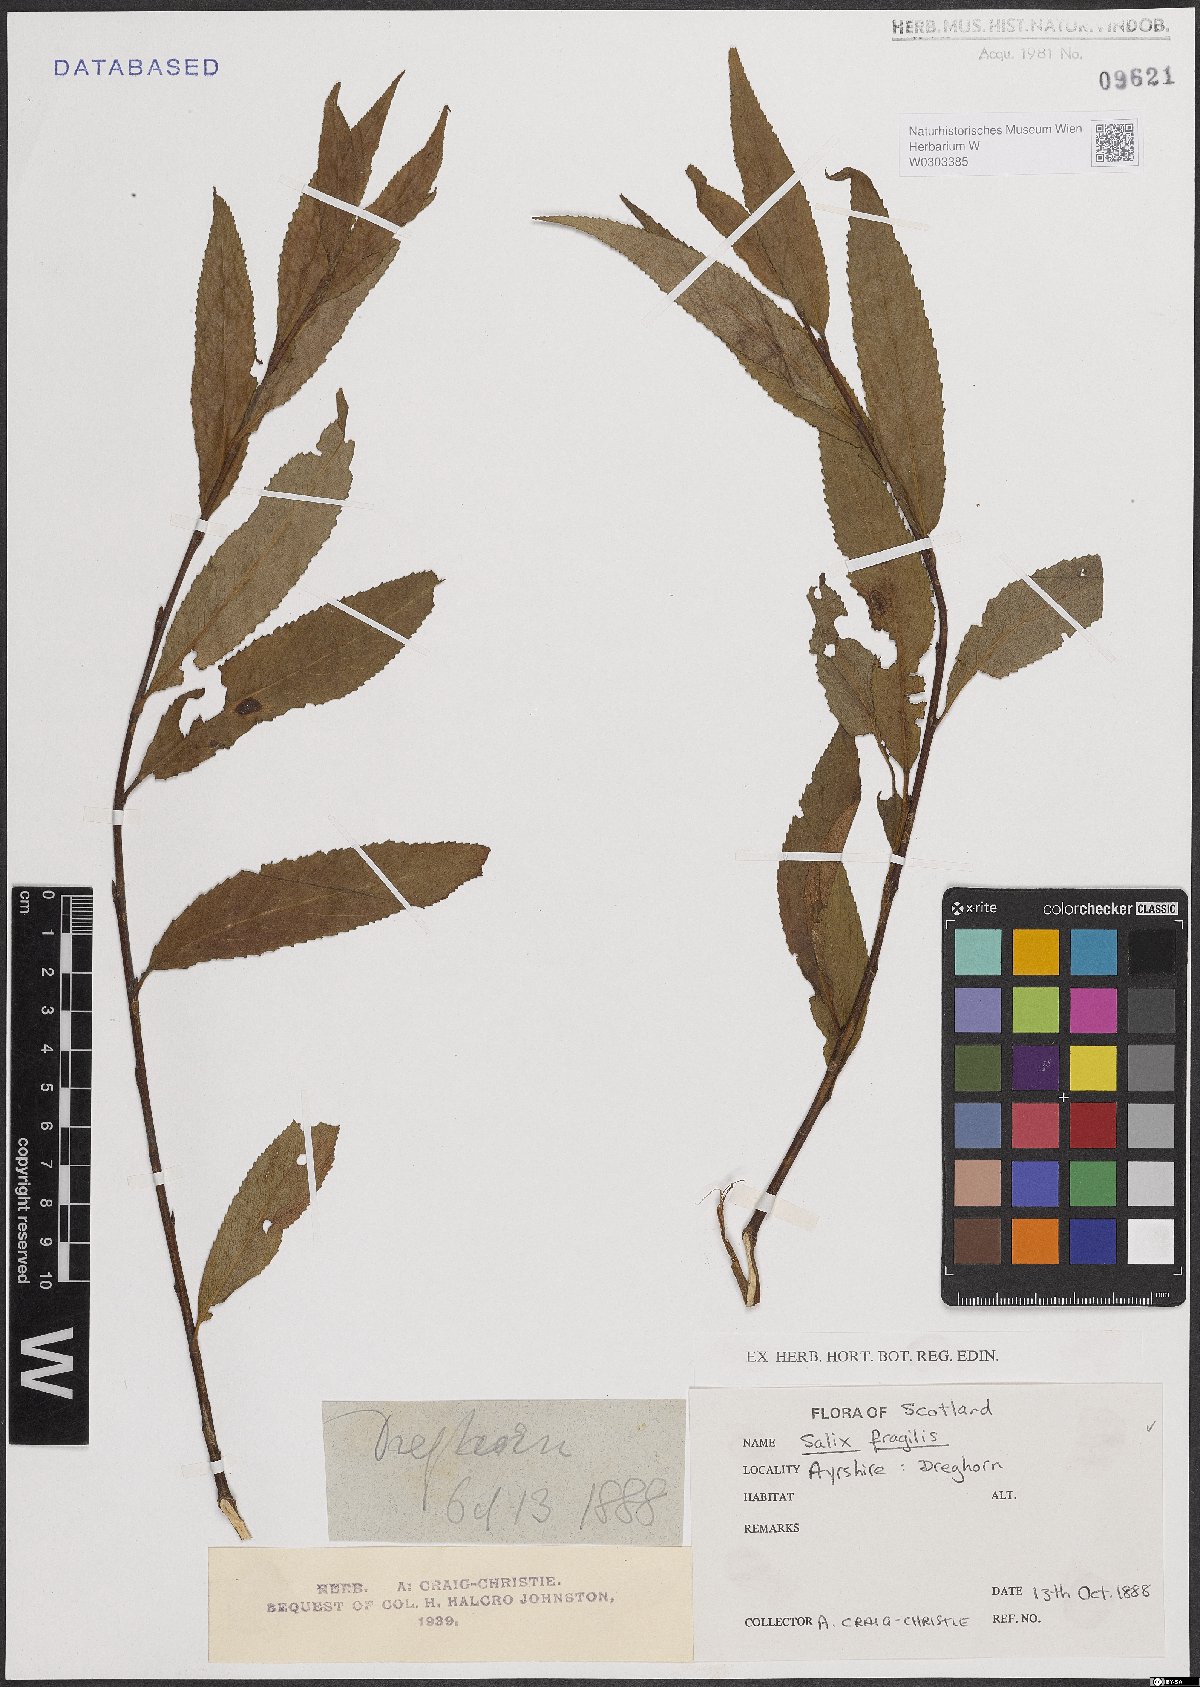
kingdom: Plantae
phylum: Tracheophyta
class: Magnoliopsida
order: Malpighiales
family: Salicaceae
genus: Salix
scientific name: Salix fragilis
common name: Crack willow
